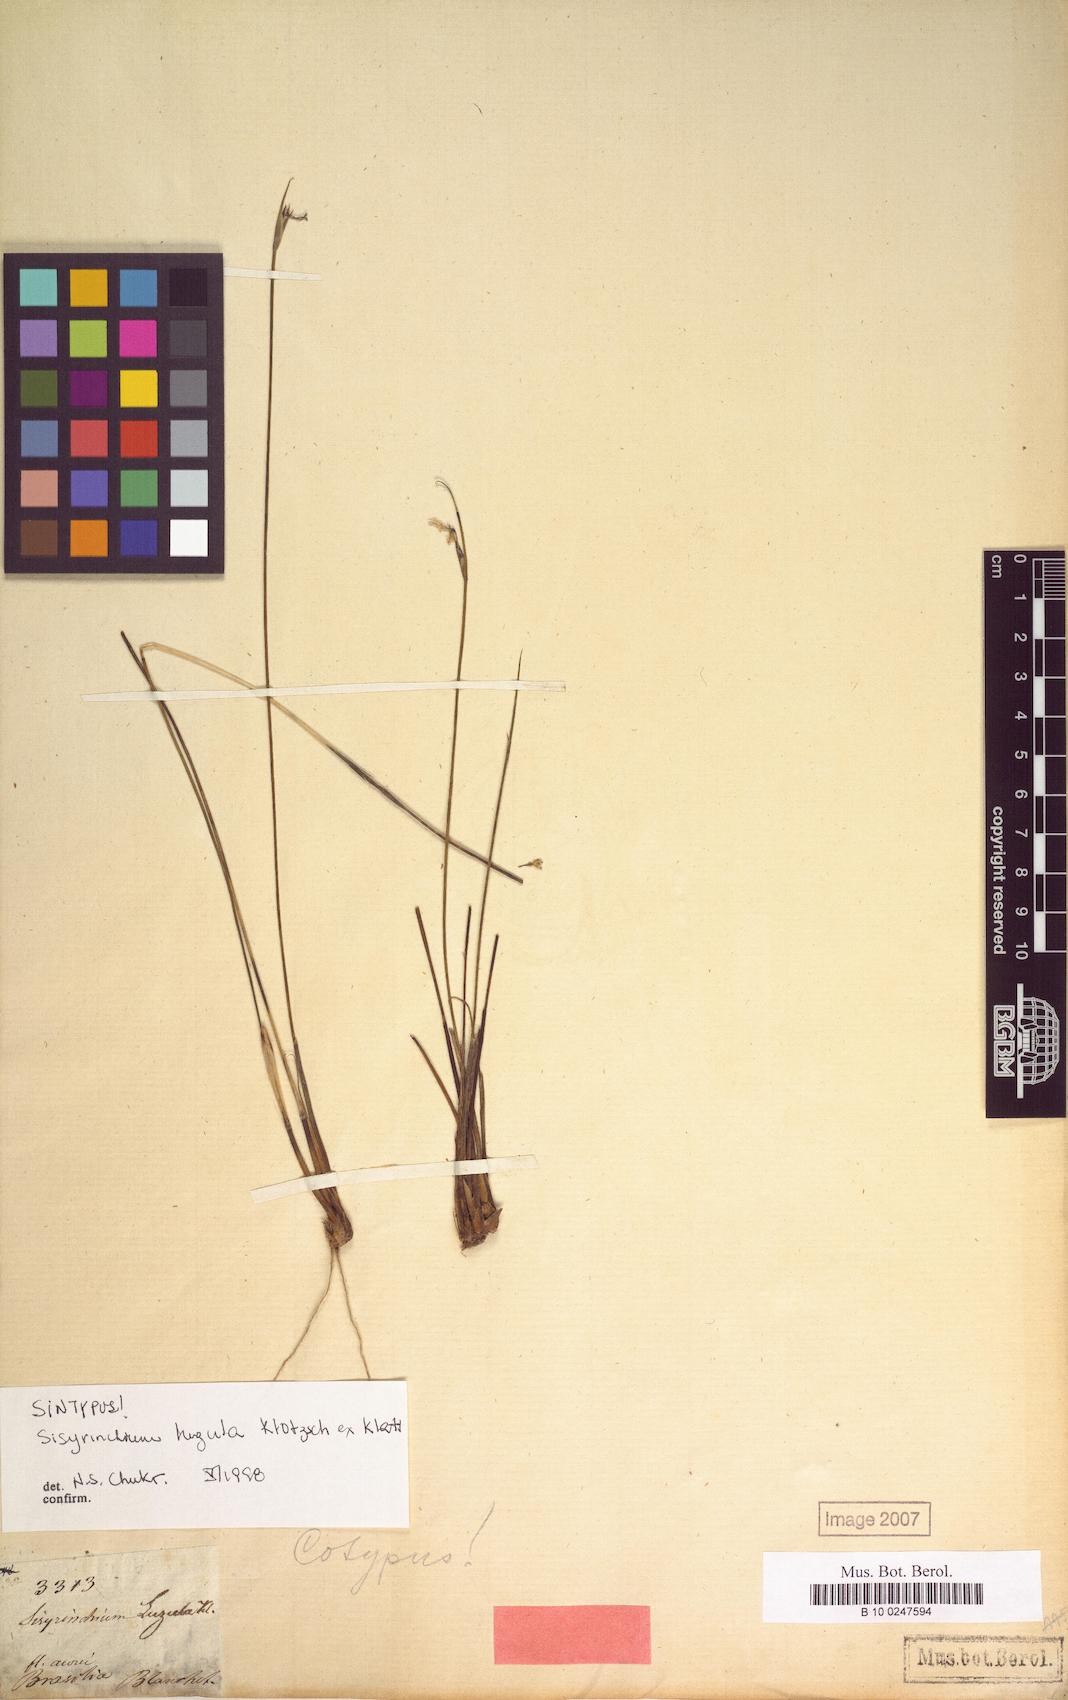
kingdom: Plantae
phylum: Tracheophyta
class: Liliopsida
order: Asparagales
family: Iridaceae
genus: Sisyrinchium
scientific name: Sisyrinchium luzula
